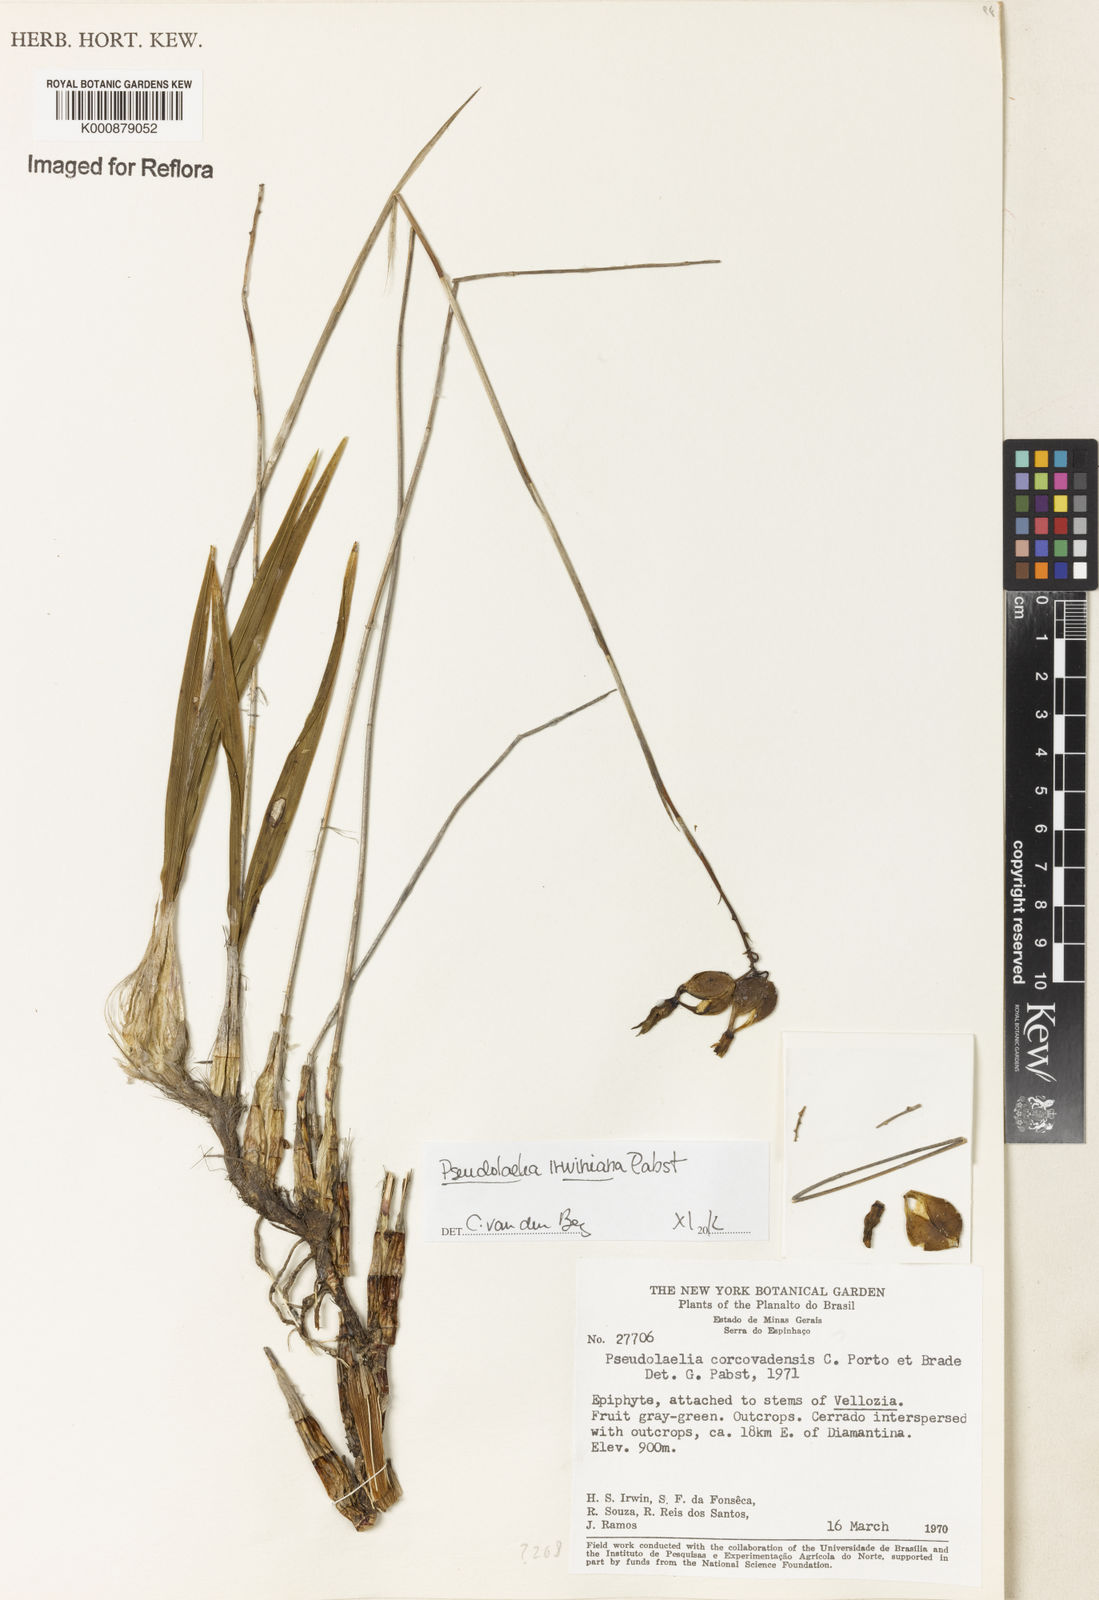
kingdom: Plantae
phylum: Tracheophyta
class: Liliopsida
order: Asparagales
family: Orchidaceae
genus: Pseudolaelia
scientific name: Pseudolaelia irwiniana
